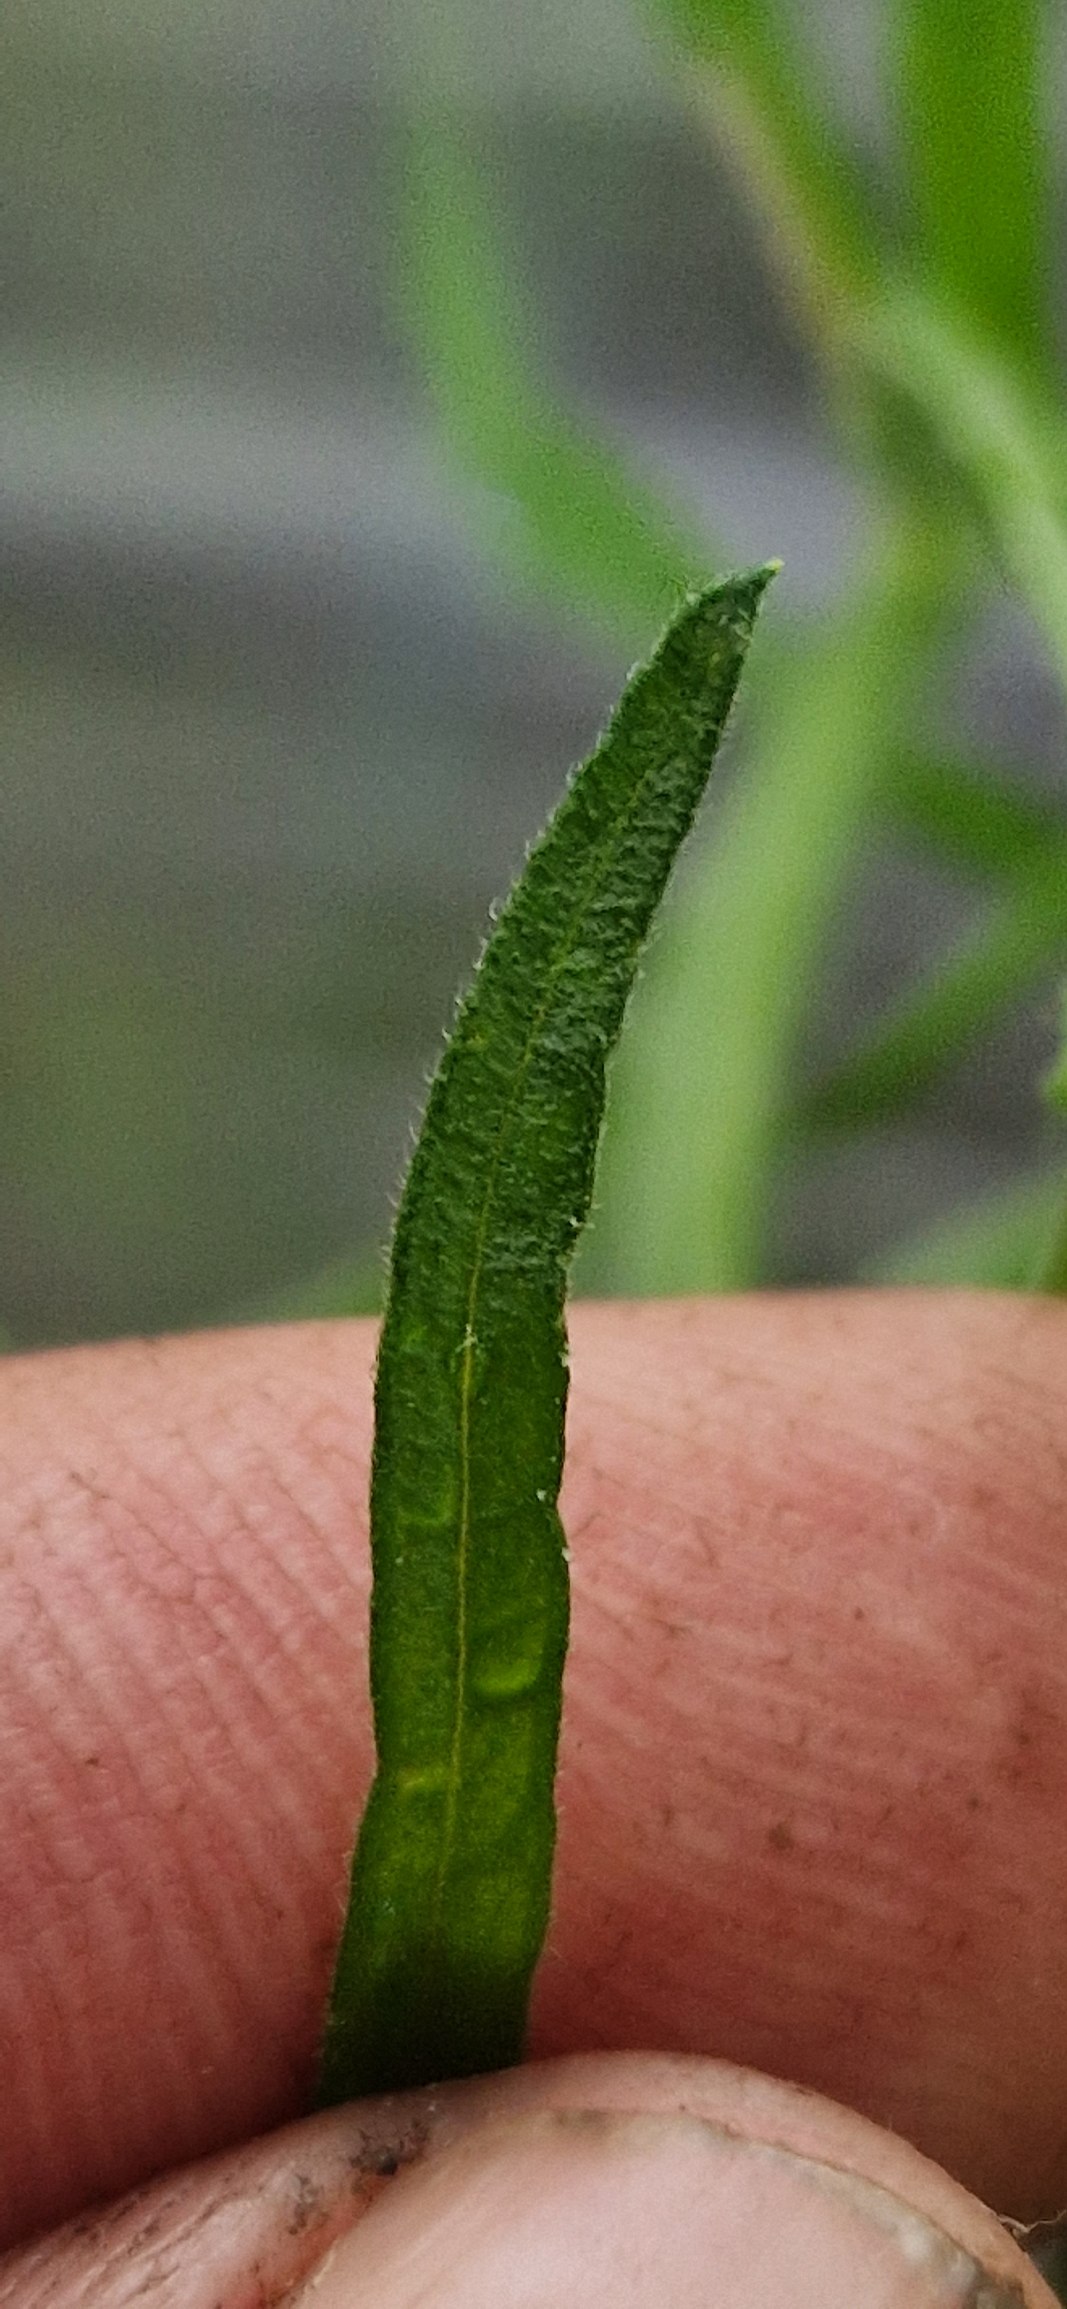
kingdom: Plantae
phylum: Tracheophyta
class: Magnoliopsida
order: Asterales
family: Asteraceae
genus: Erigeron
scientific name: Erigeron sumatrensis
